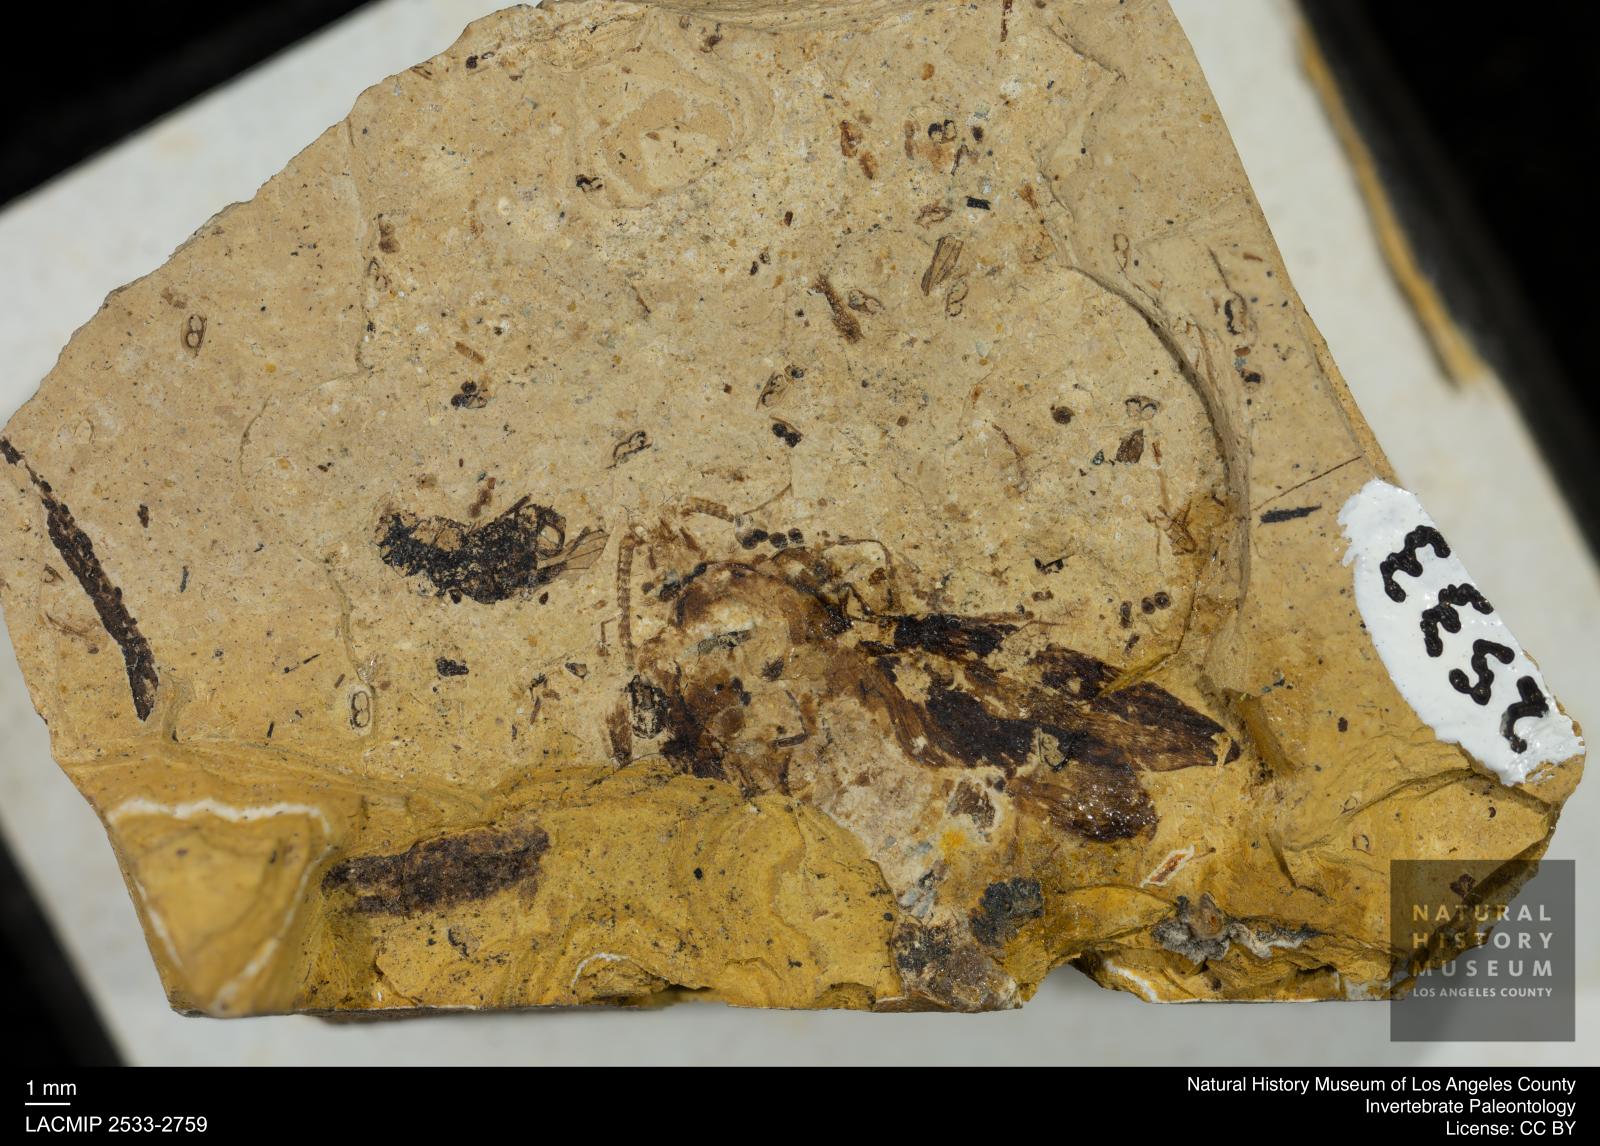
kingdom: Animalia
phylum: Arthropoda
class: Insecta
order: Trichoptera
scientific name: Trichoptera
